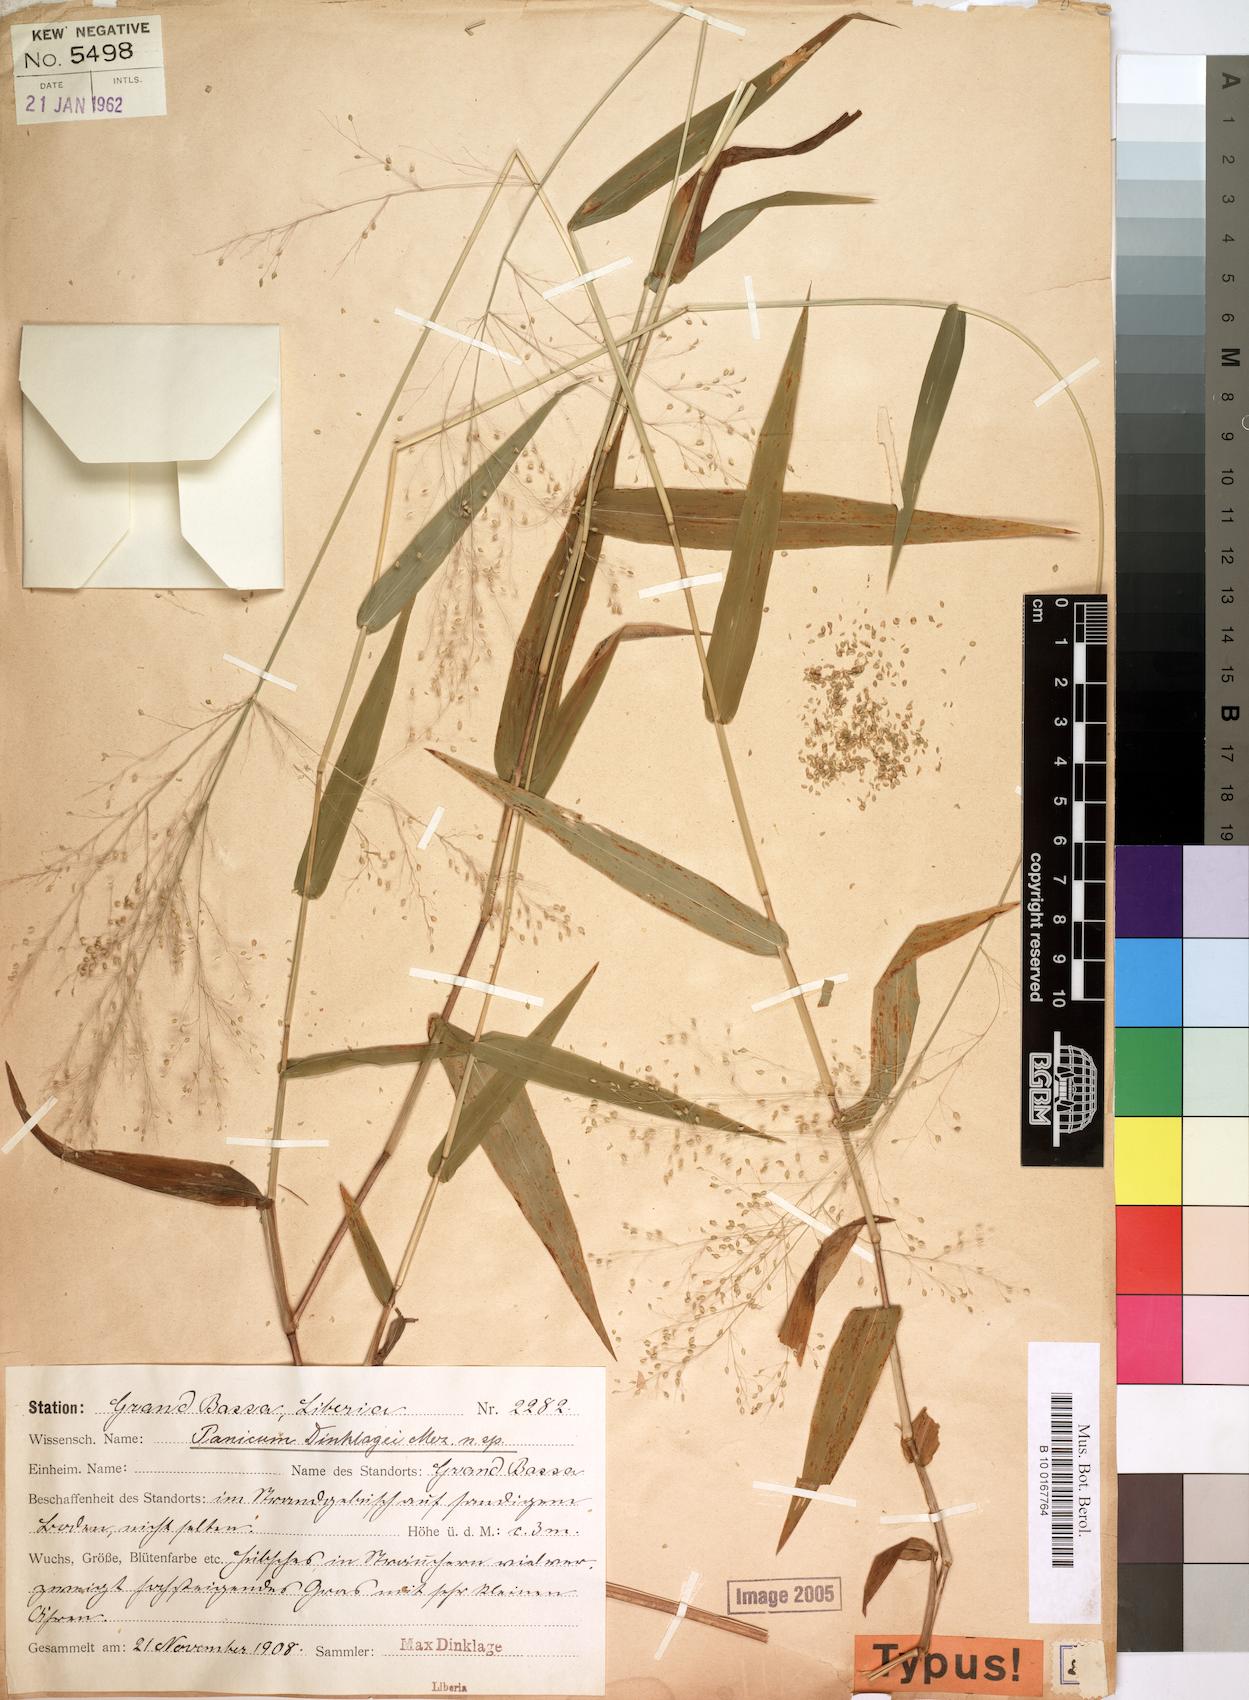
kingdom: Plantae
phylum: Tracheophyta
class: Liliopsida
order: Poales
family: Poaceae
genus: Trichanthecium
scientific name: Trichanthecium dinklagei
